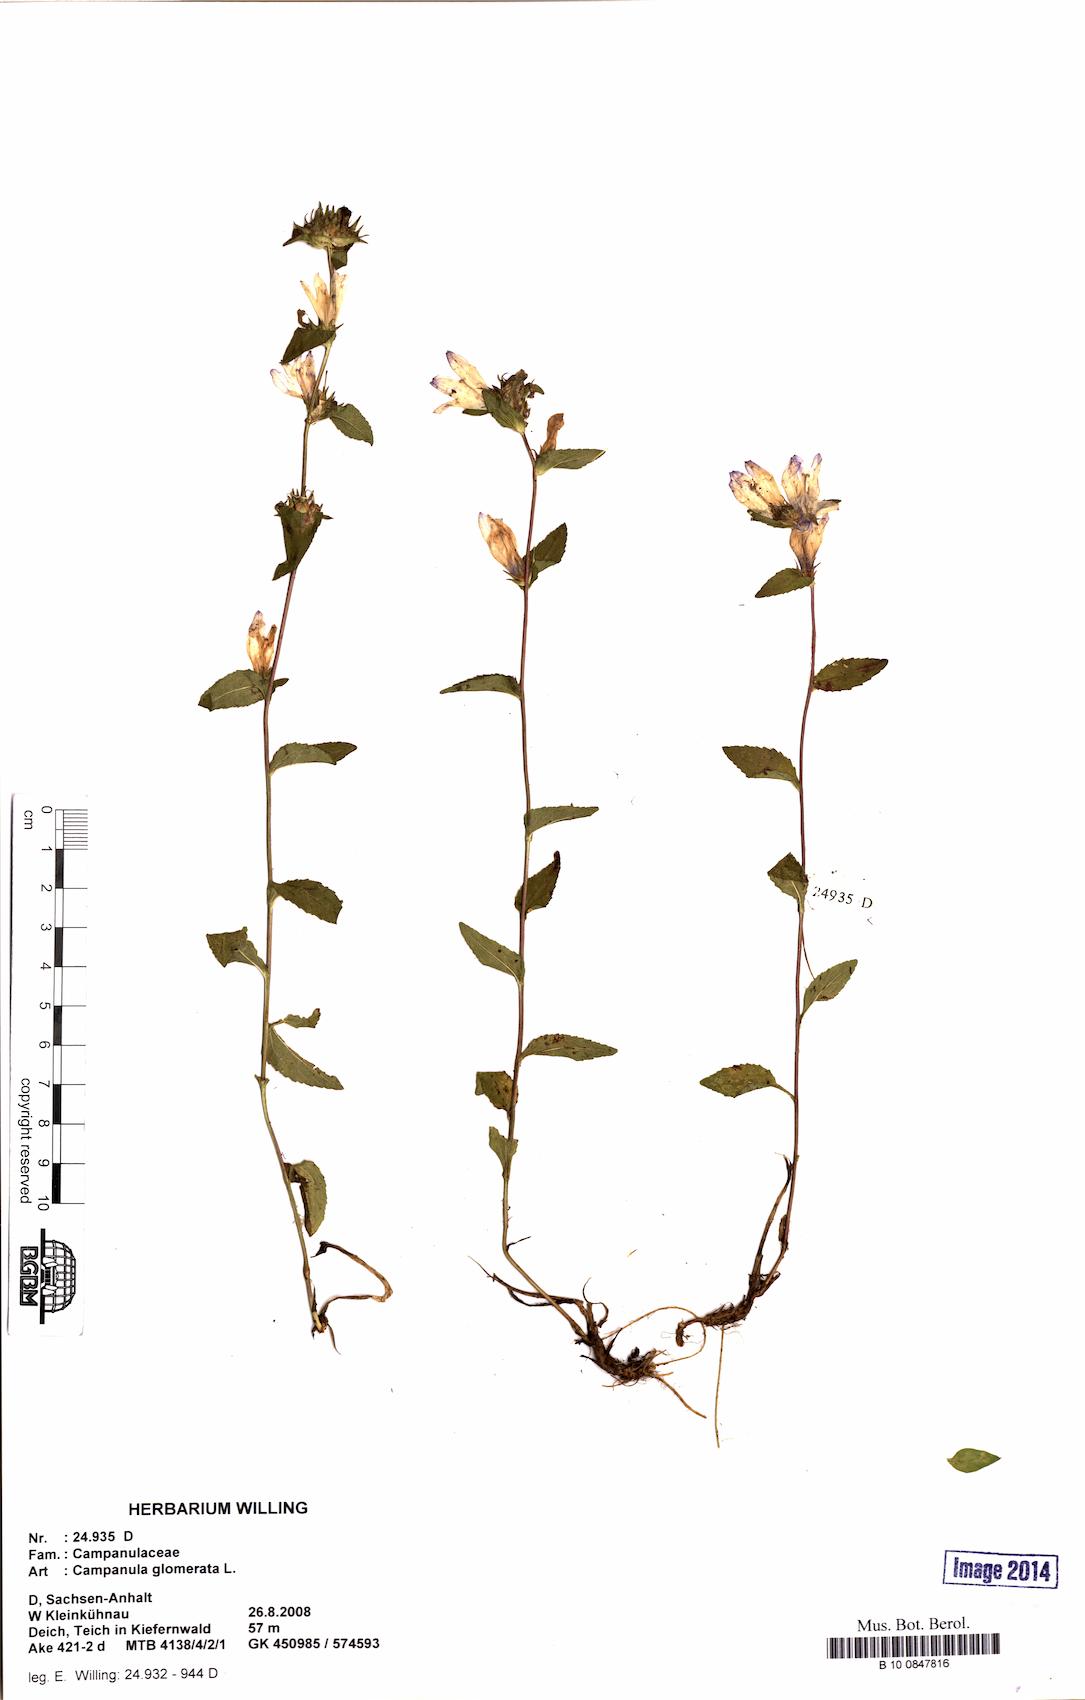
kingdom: Plantae
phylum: Tracheophyta
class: Magnoliopsida
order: Asterales
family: Campanulaceae
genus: Campanula
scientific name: Campanula glomerata
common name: Clustered bellflower
